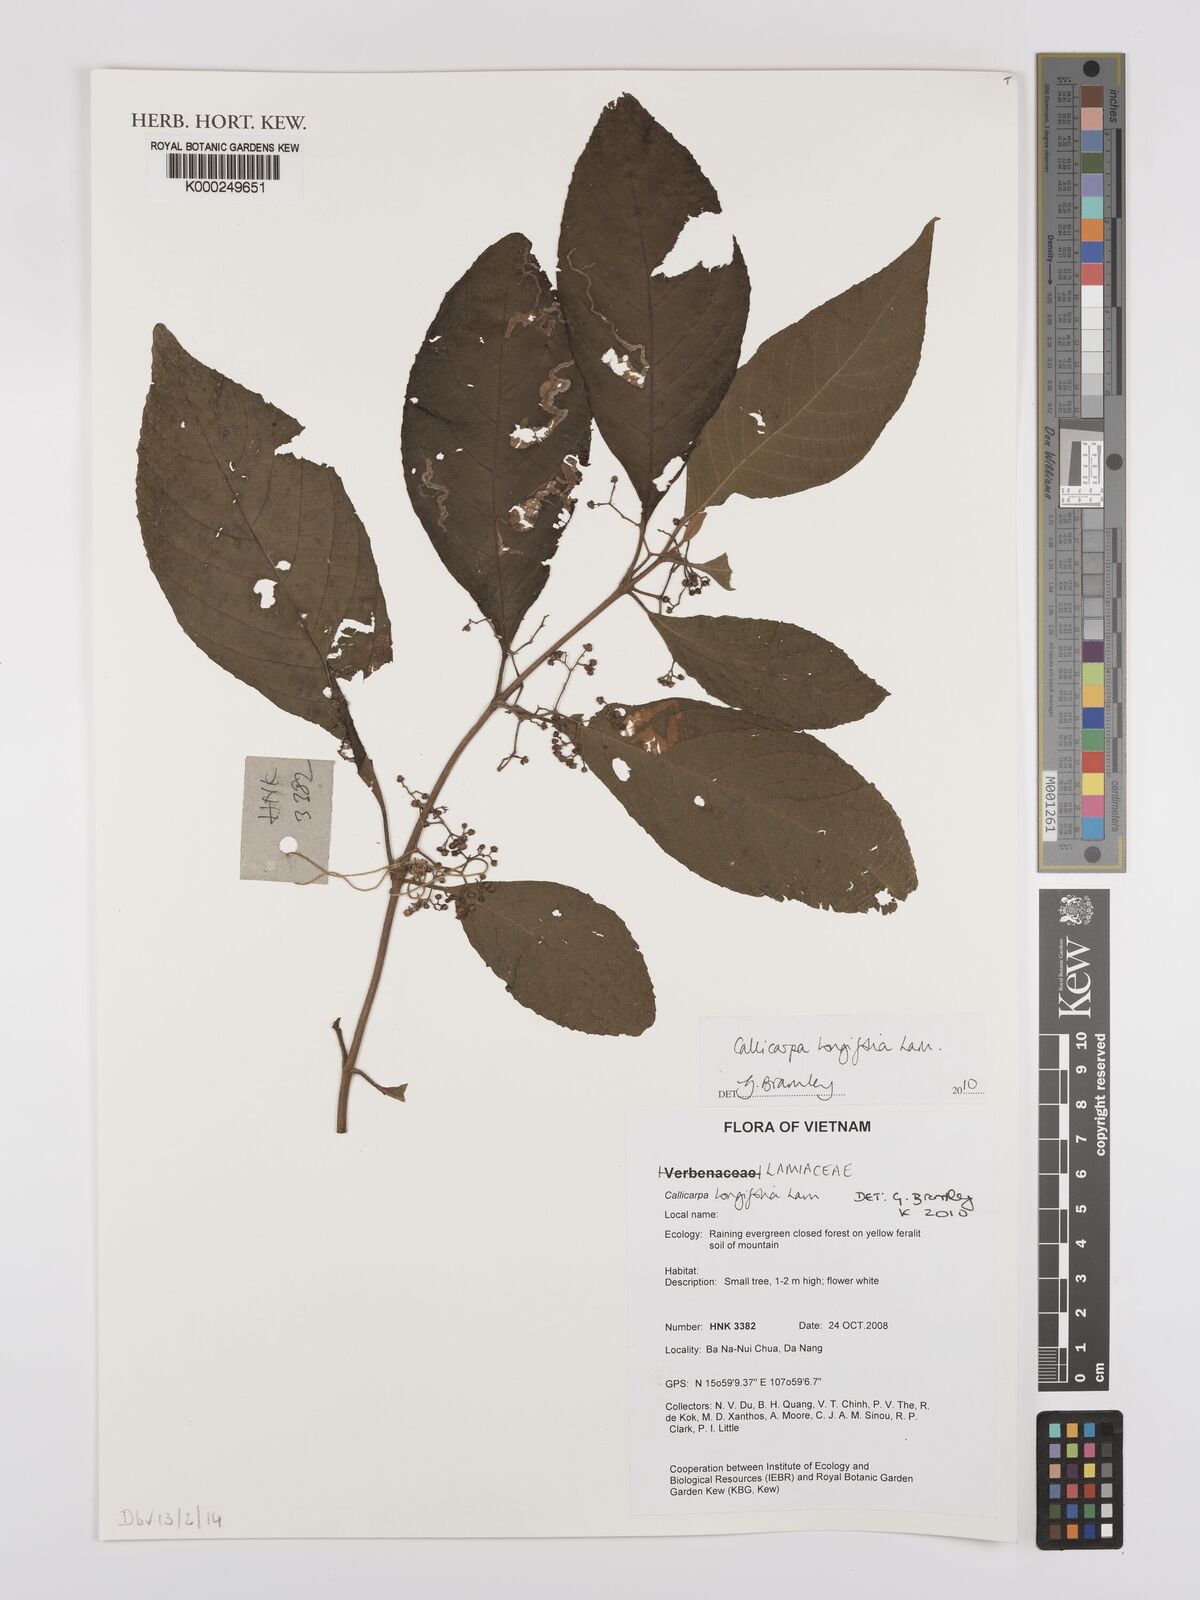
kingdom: Plantae
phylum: Tracheophyta
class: Magnoliopsida
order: Lamiales
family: Lamiaceae
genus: Callicarpa
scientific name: Callicarpa longifolia
